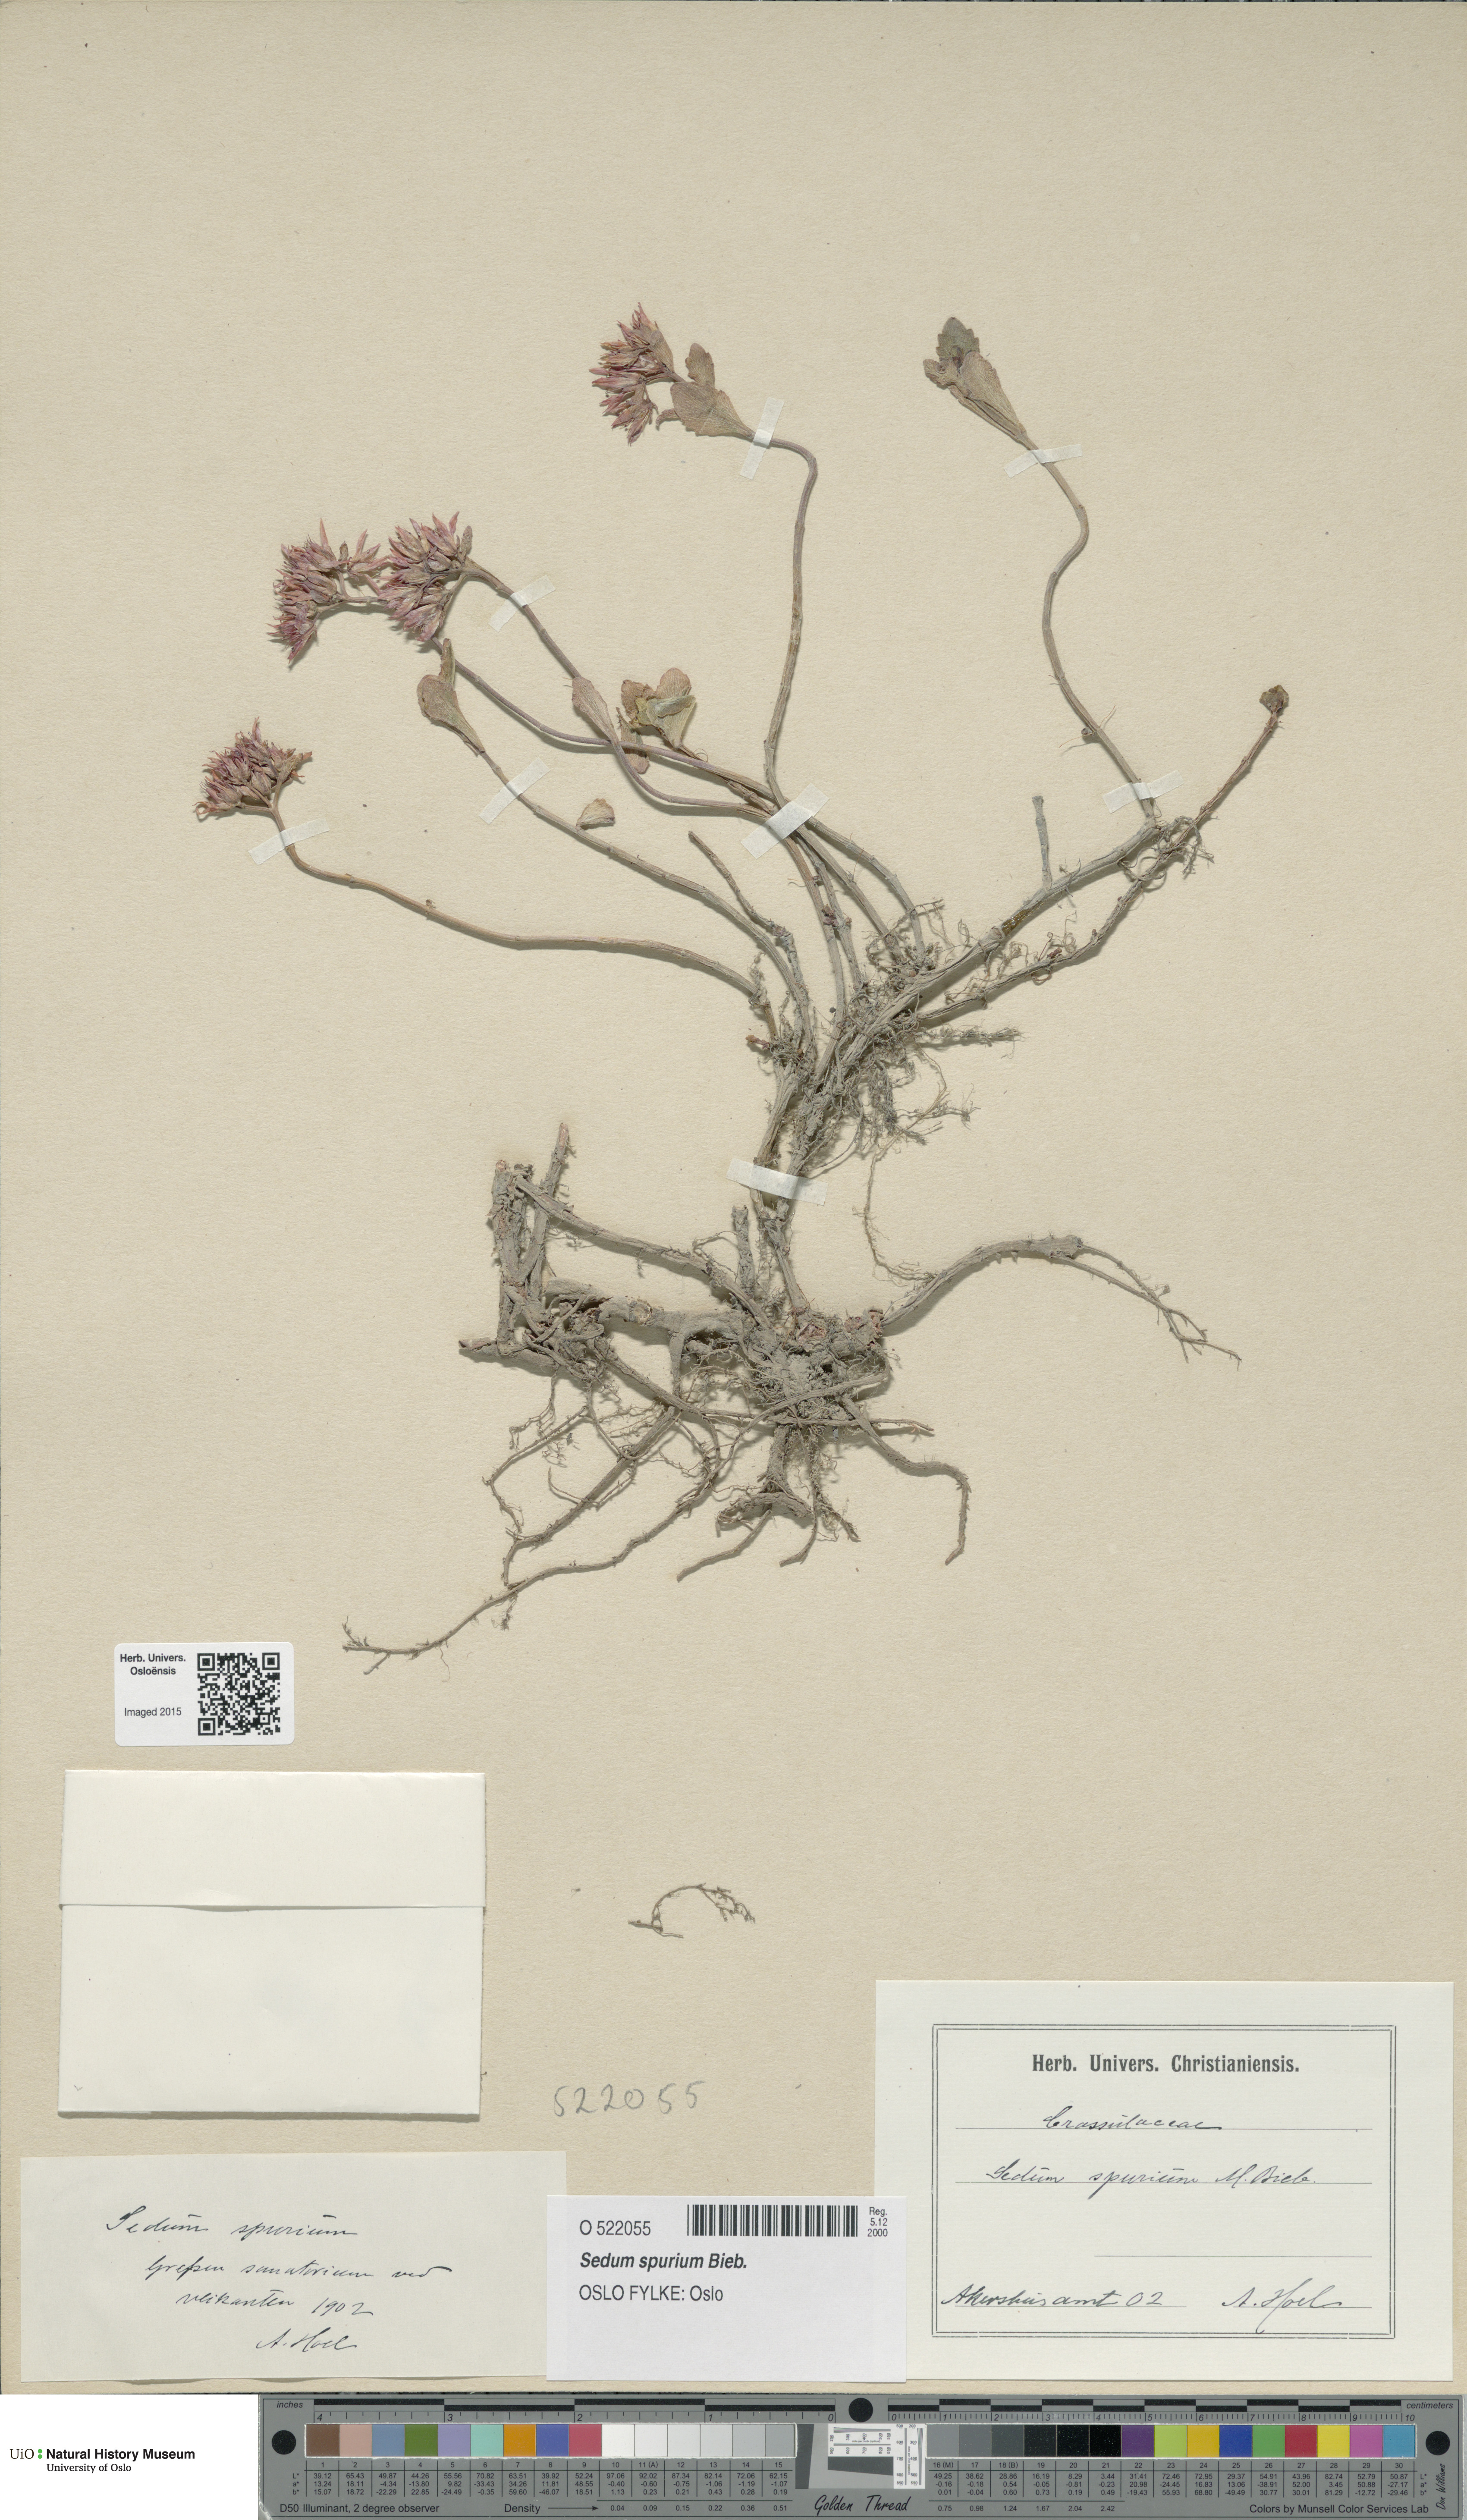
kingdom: Plantae
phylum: Tracheophyta
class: Magnoliopsida
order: Saxifragales
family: Crassulaceae
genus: Phedimus
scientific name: Phedimus spurius
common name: Caucasian stonecrop
